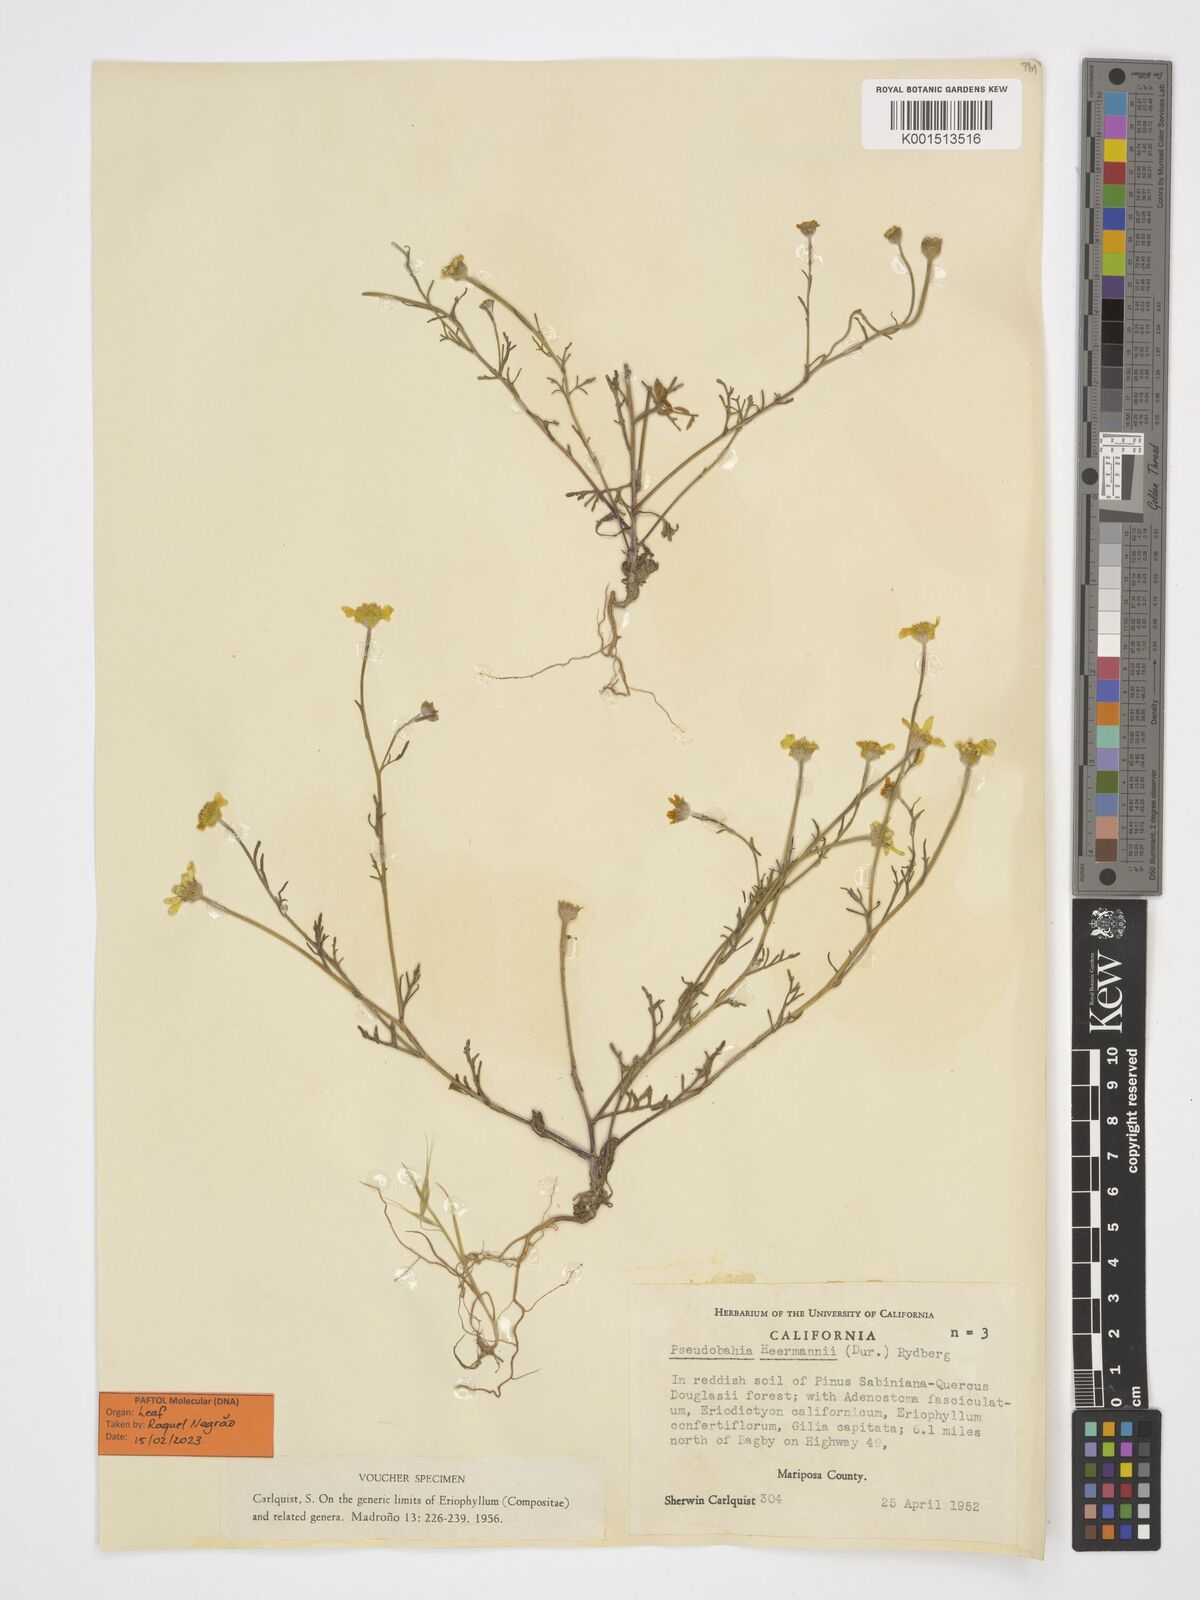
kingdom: Plantae
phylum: Tracheophyta
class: Magnoliopsida
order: Asterales
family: Asteraceae
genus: Pseudobahia
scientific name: Pseudobahia heermannii
